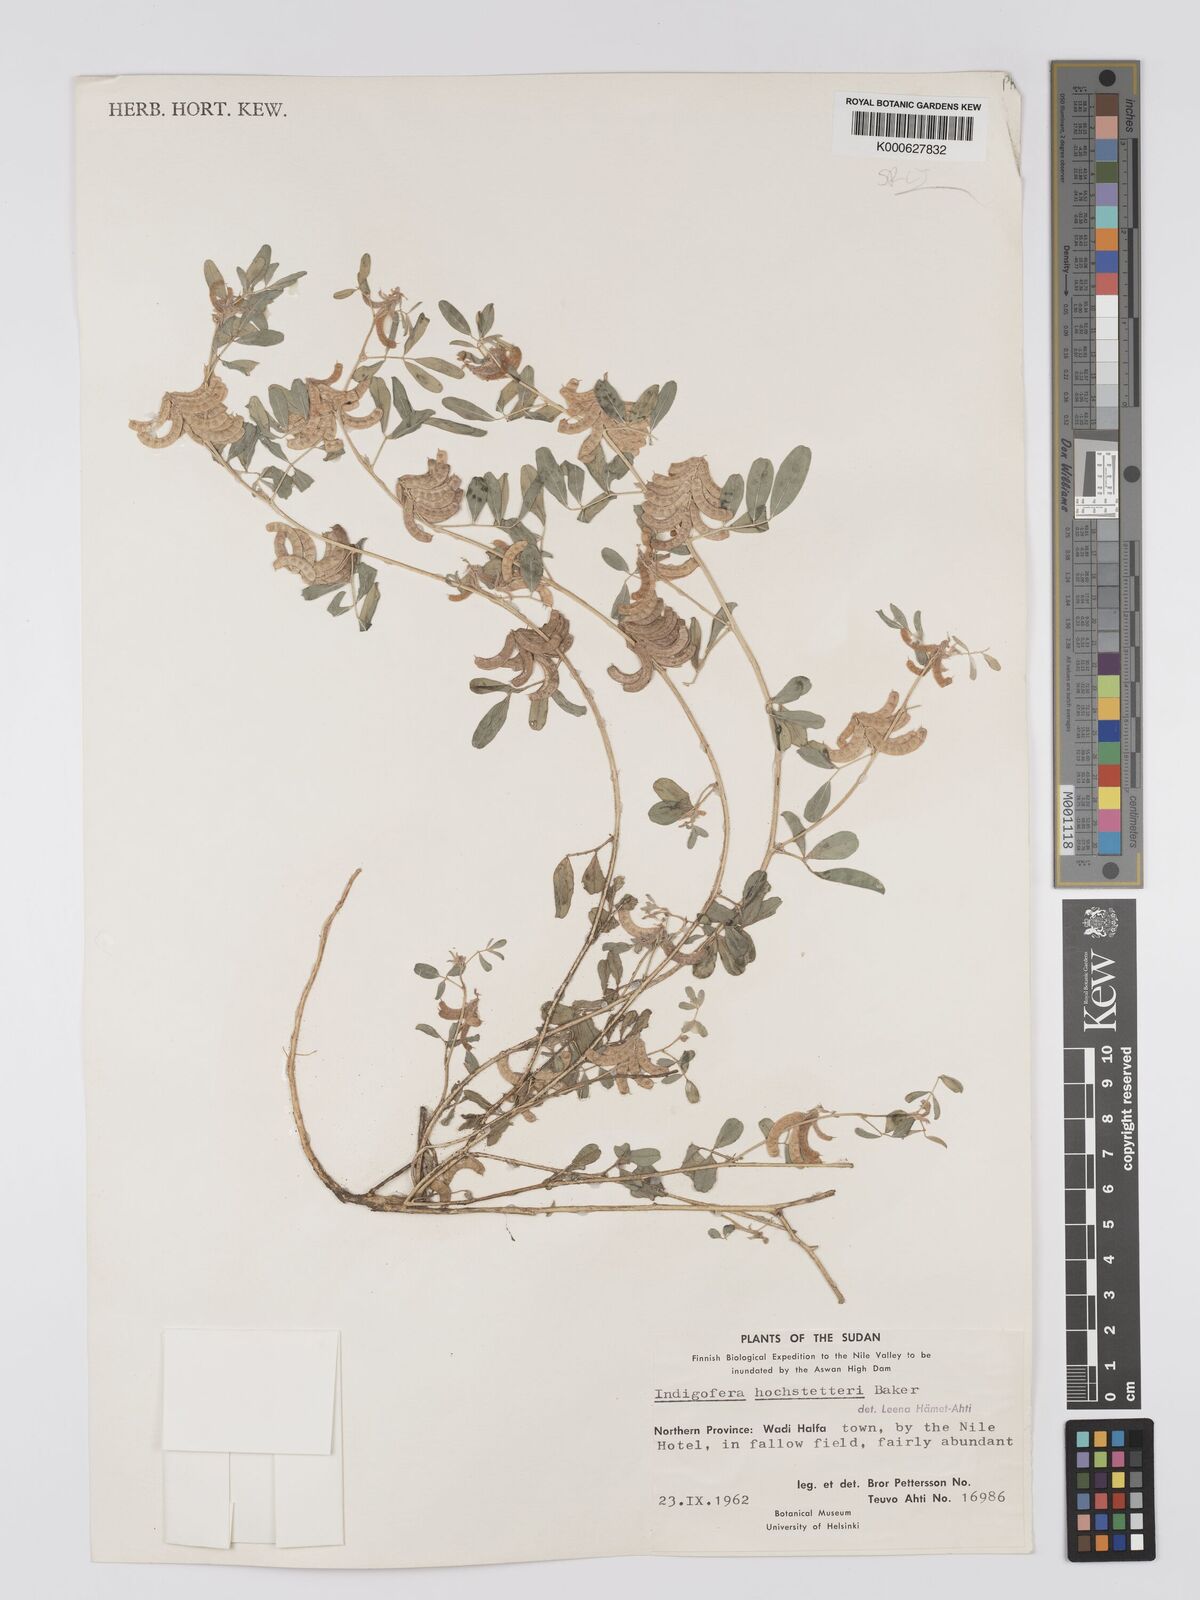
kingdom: Plantae
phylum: Tracheophyta
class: Magnoliopsida
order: Fabales
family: Fabaceae
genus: Indigofera
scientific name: Indigofera hochstetteri
